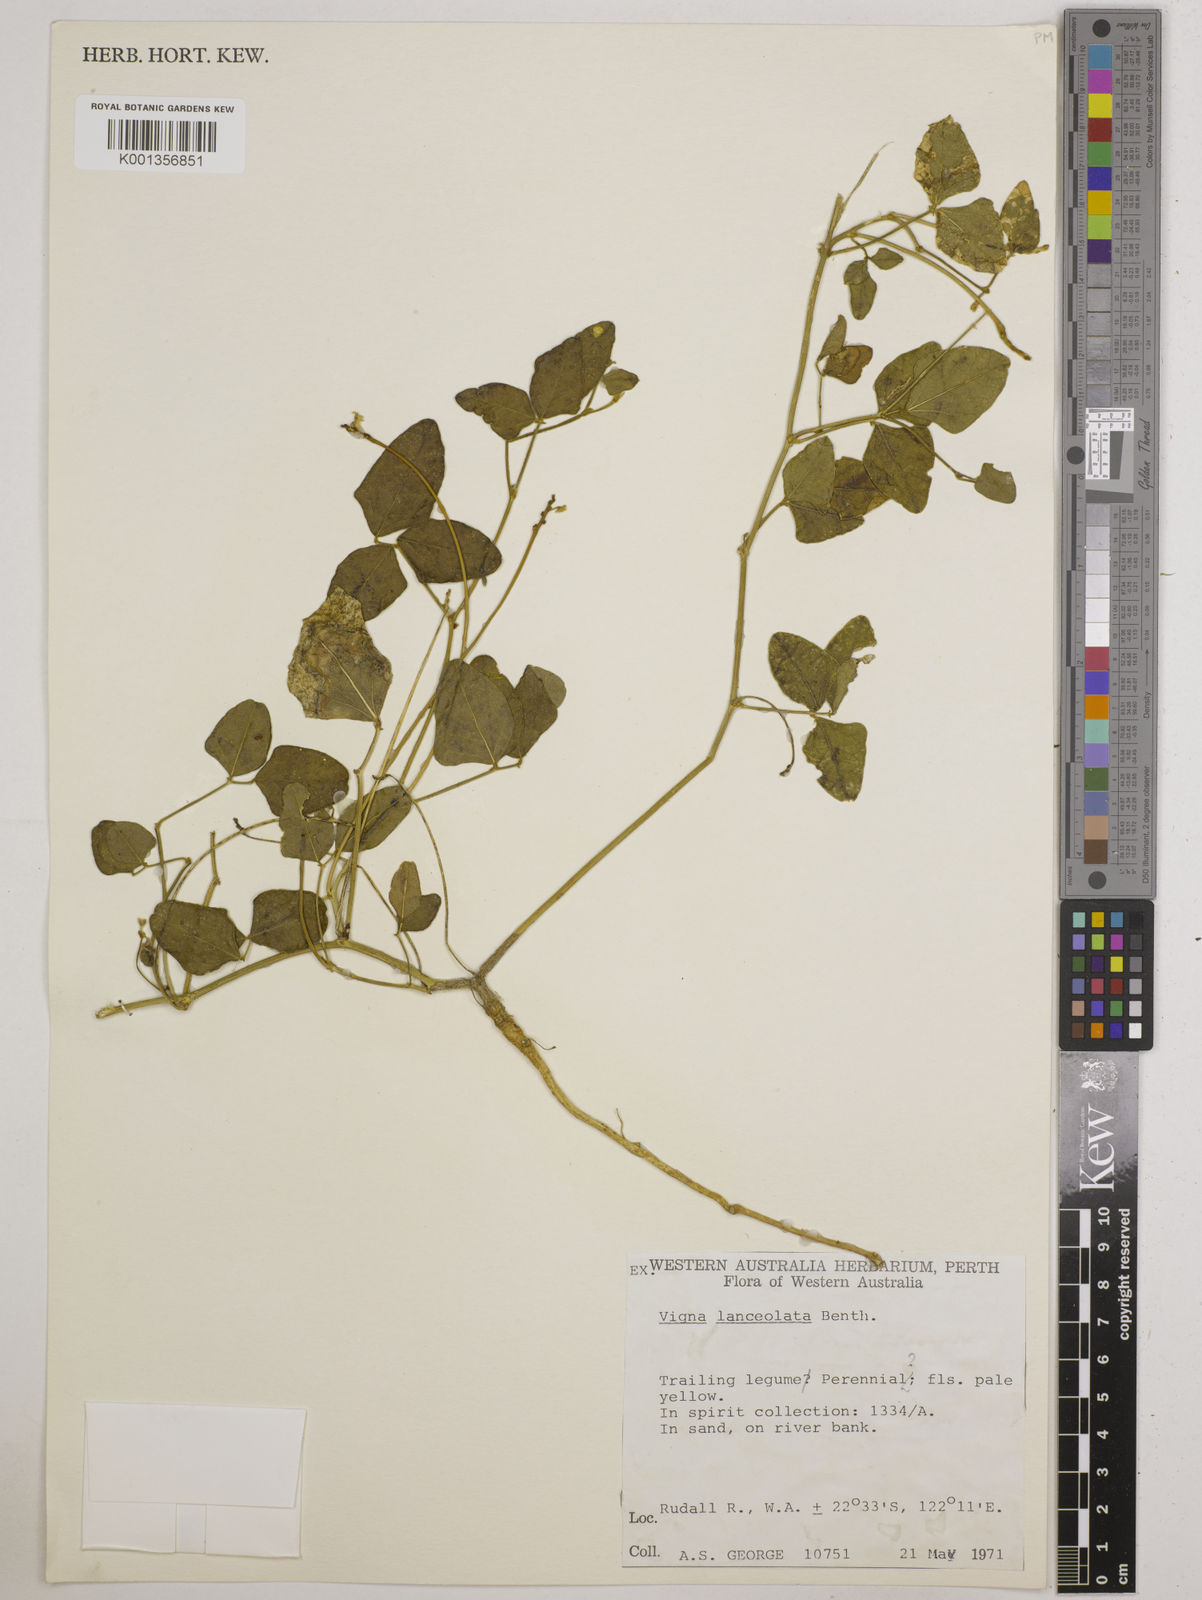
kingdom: Plantae
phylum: Tracheophyta
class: Magnoliopsida
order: Fabales
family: Fabaceae
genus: Vigna
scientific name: Vigna lanceolata
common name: Maloga-bean
